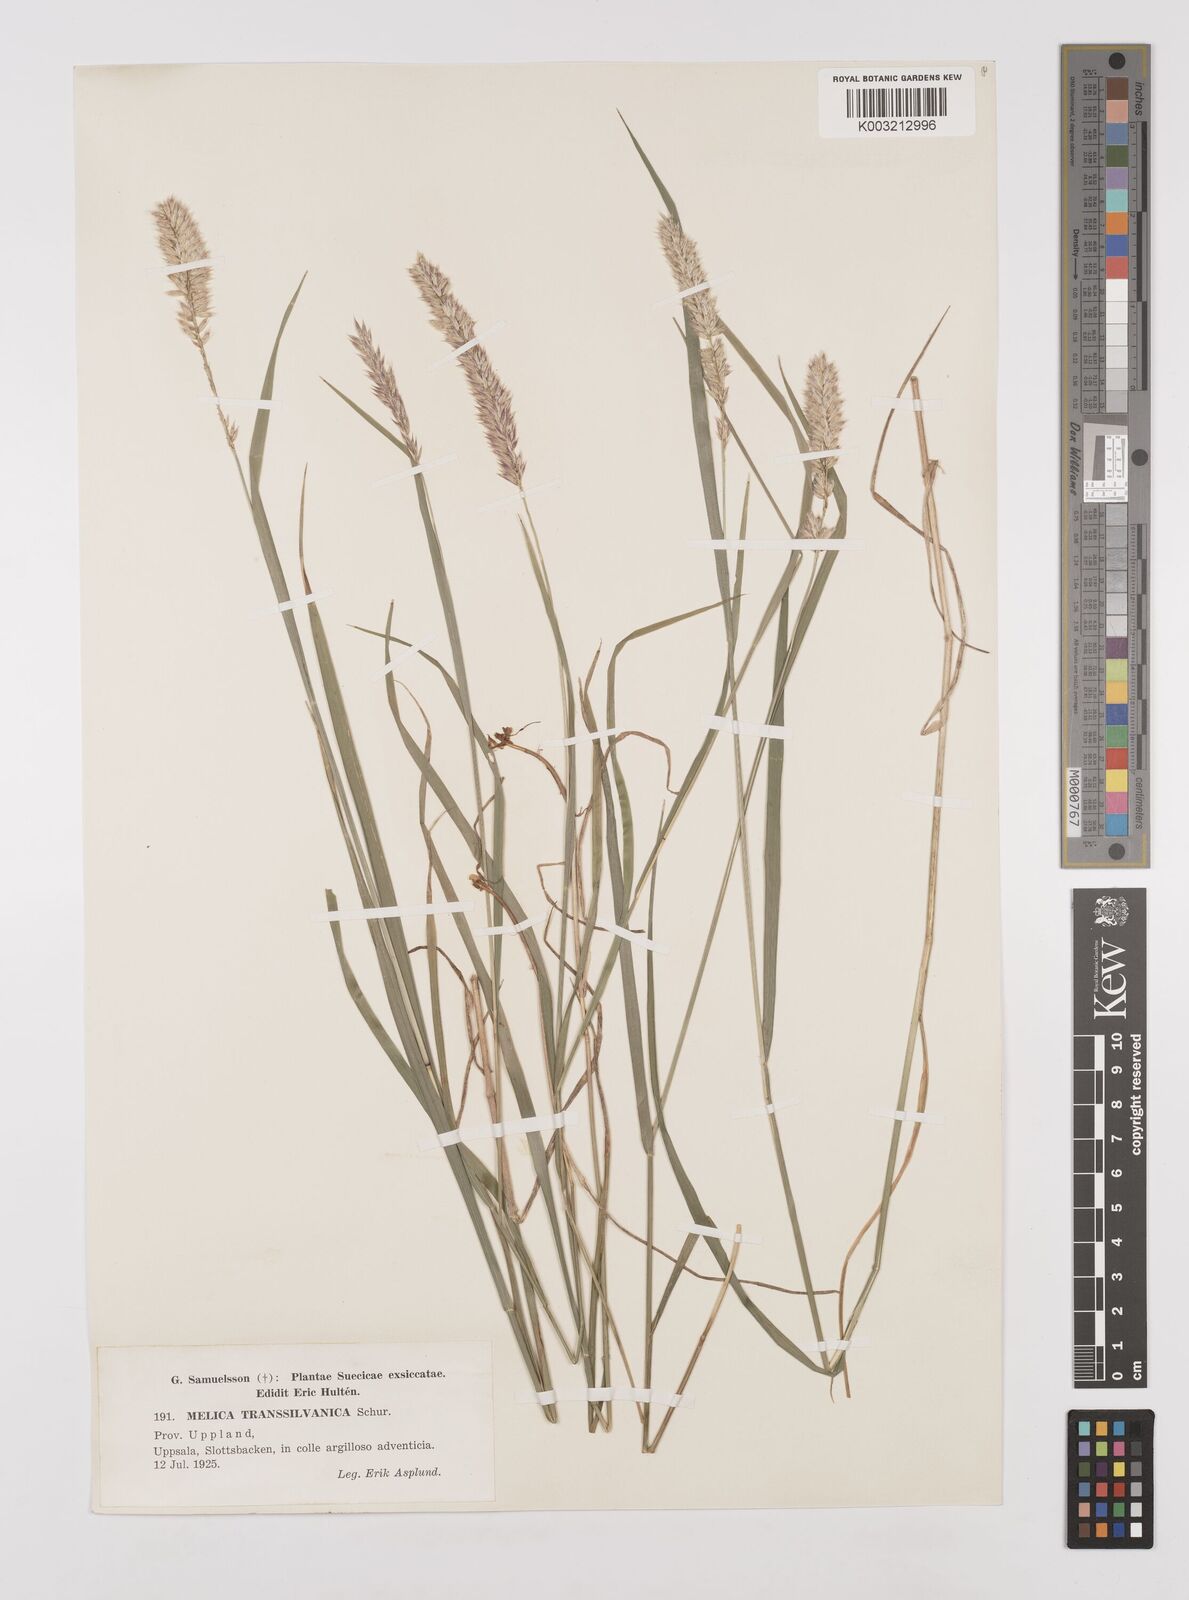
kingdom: Plantae
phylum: Tracheophyta
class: Liliopsida
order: Poales
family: Poaceae
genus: Melica
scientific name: Melica transsilvanica
